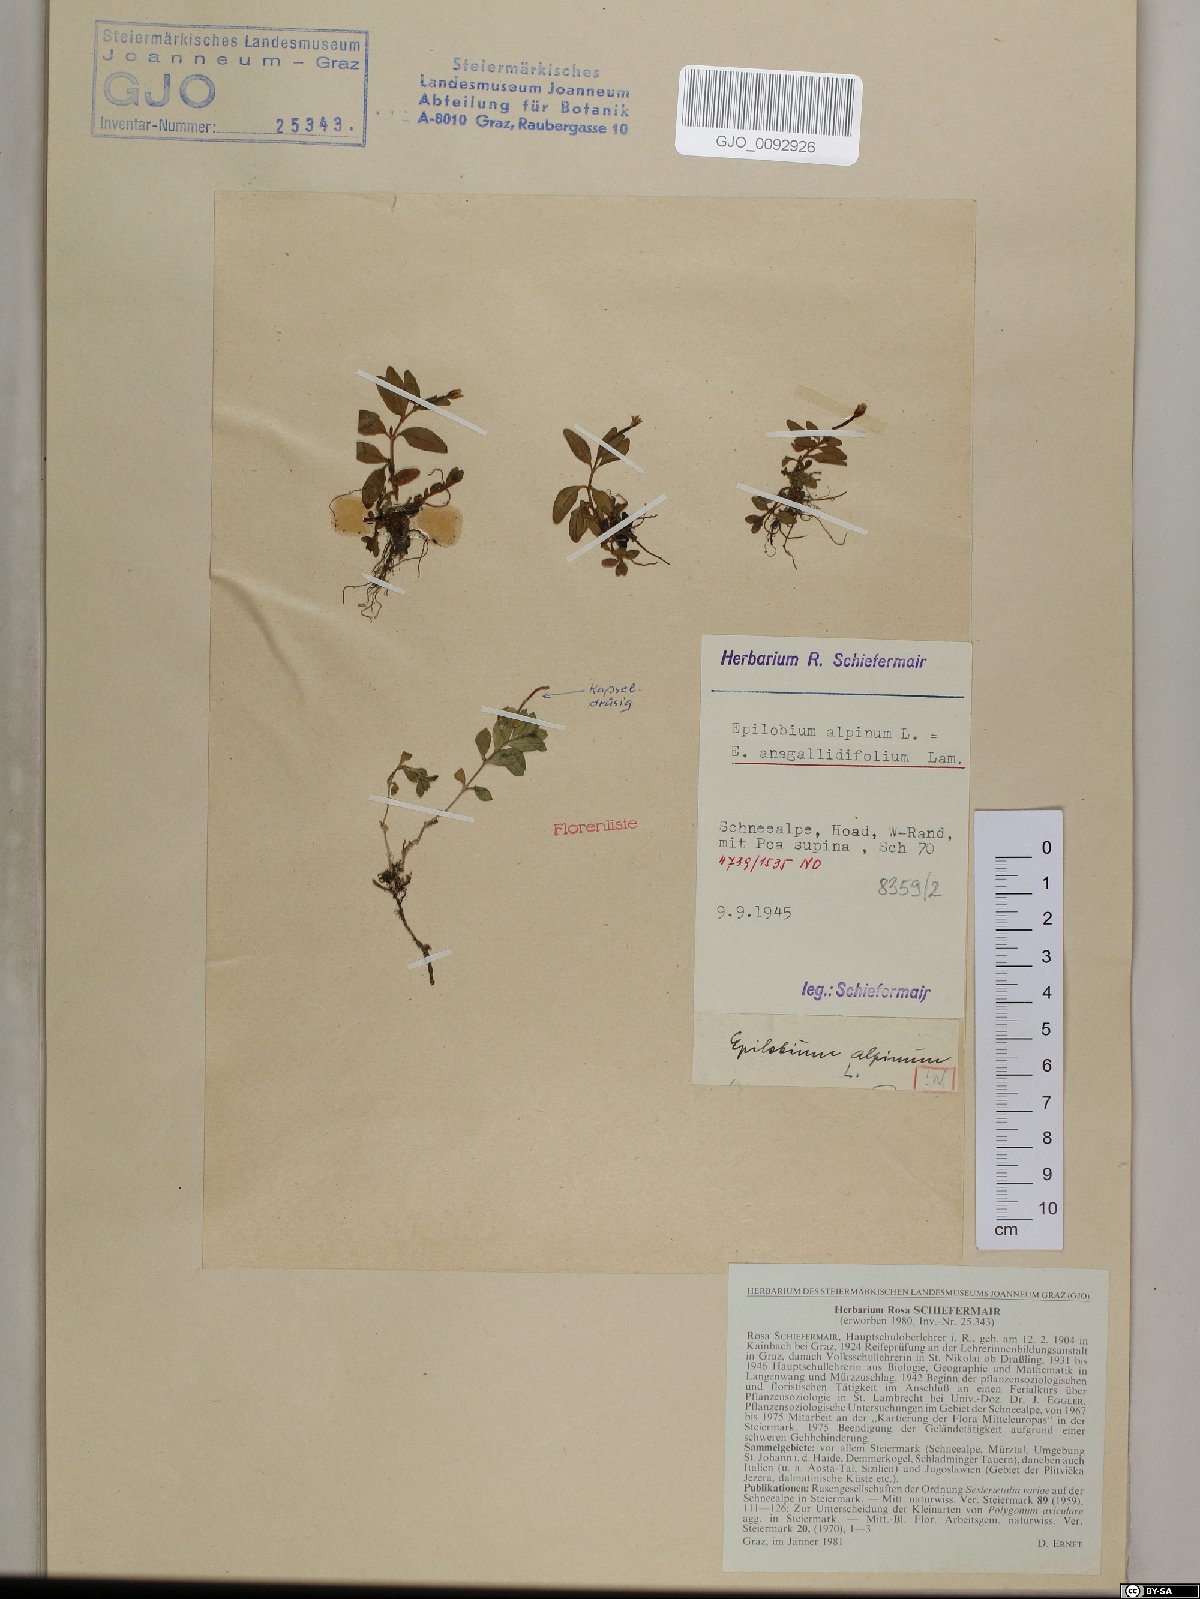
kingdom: Plantae
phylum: Tracheophyta
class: Magnoliopsida
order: Myrtales
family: Onagraceae
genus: Epilobium
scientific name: Epilobium anagallidifolium
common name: Alpine willowherb
